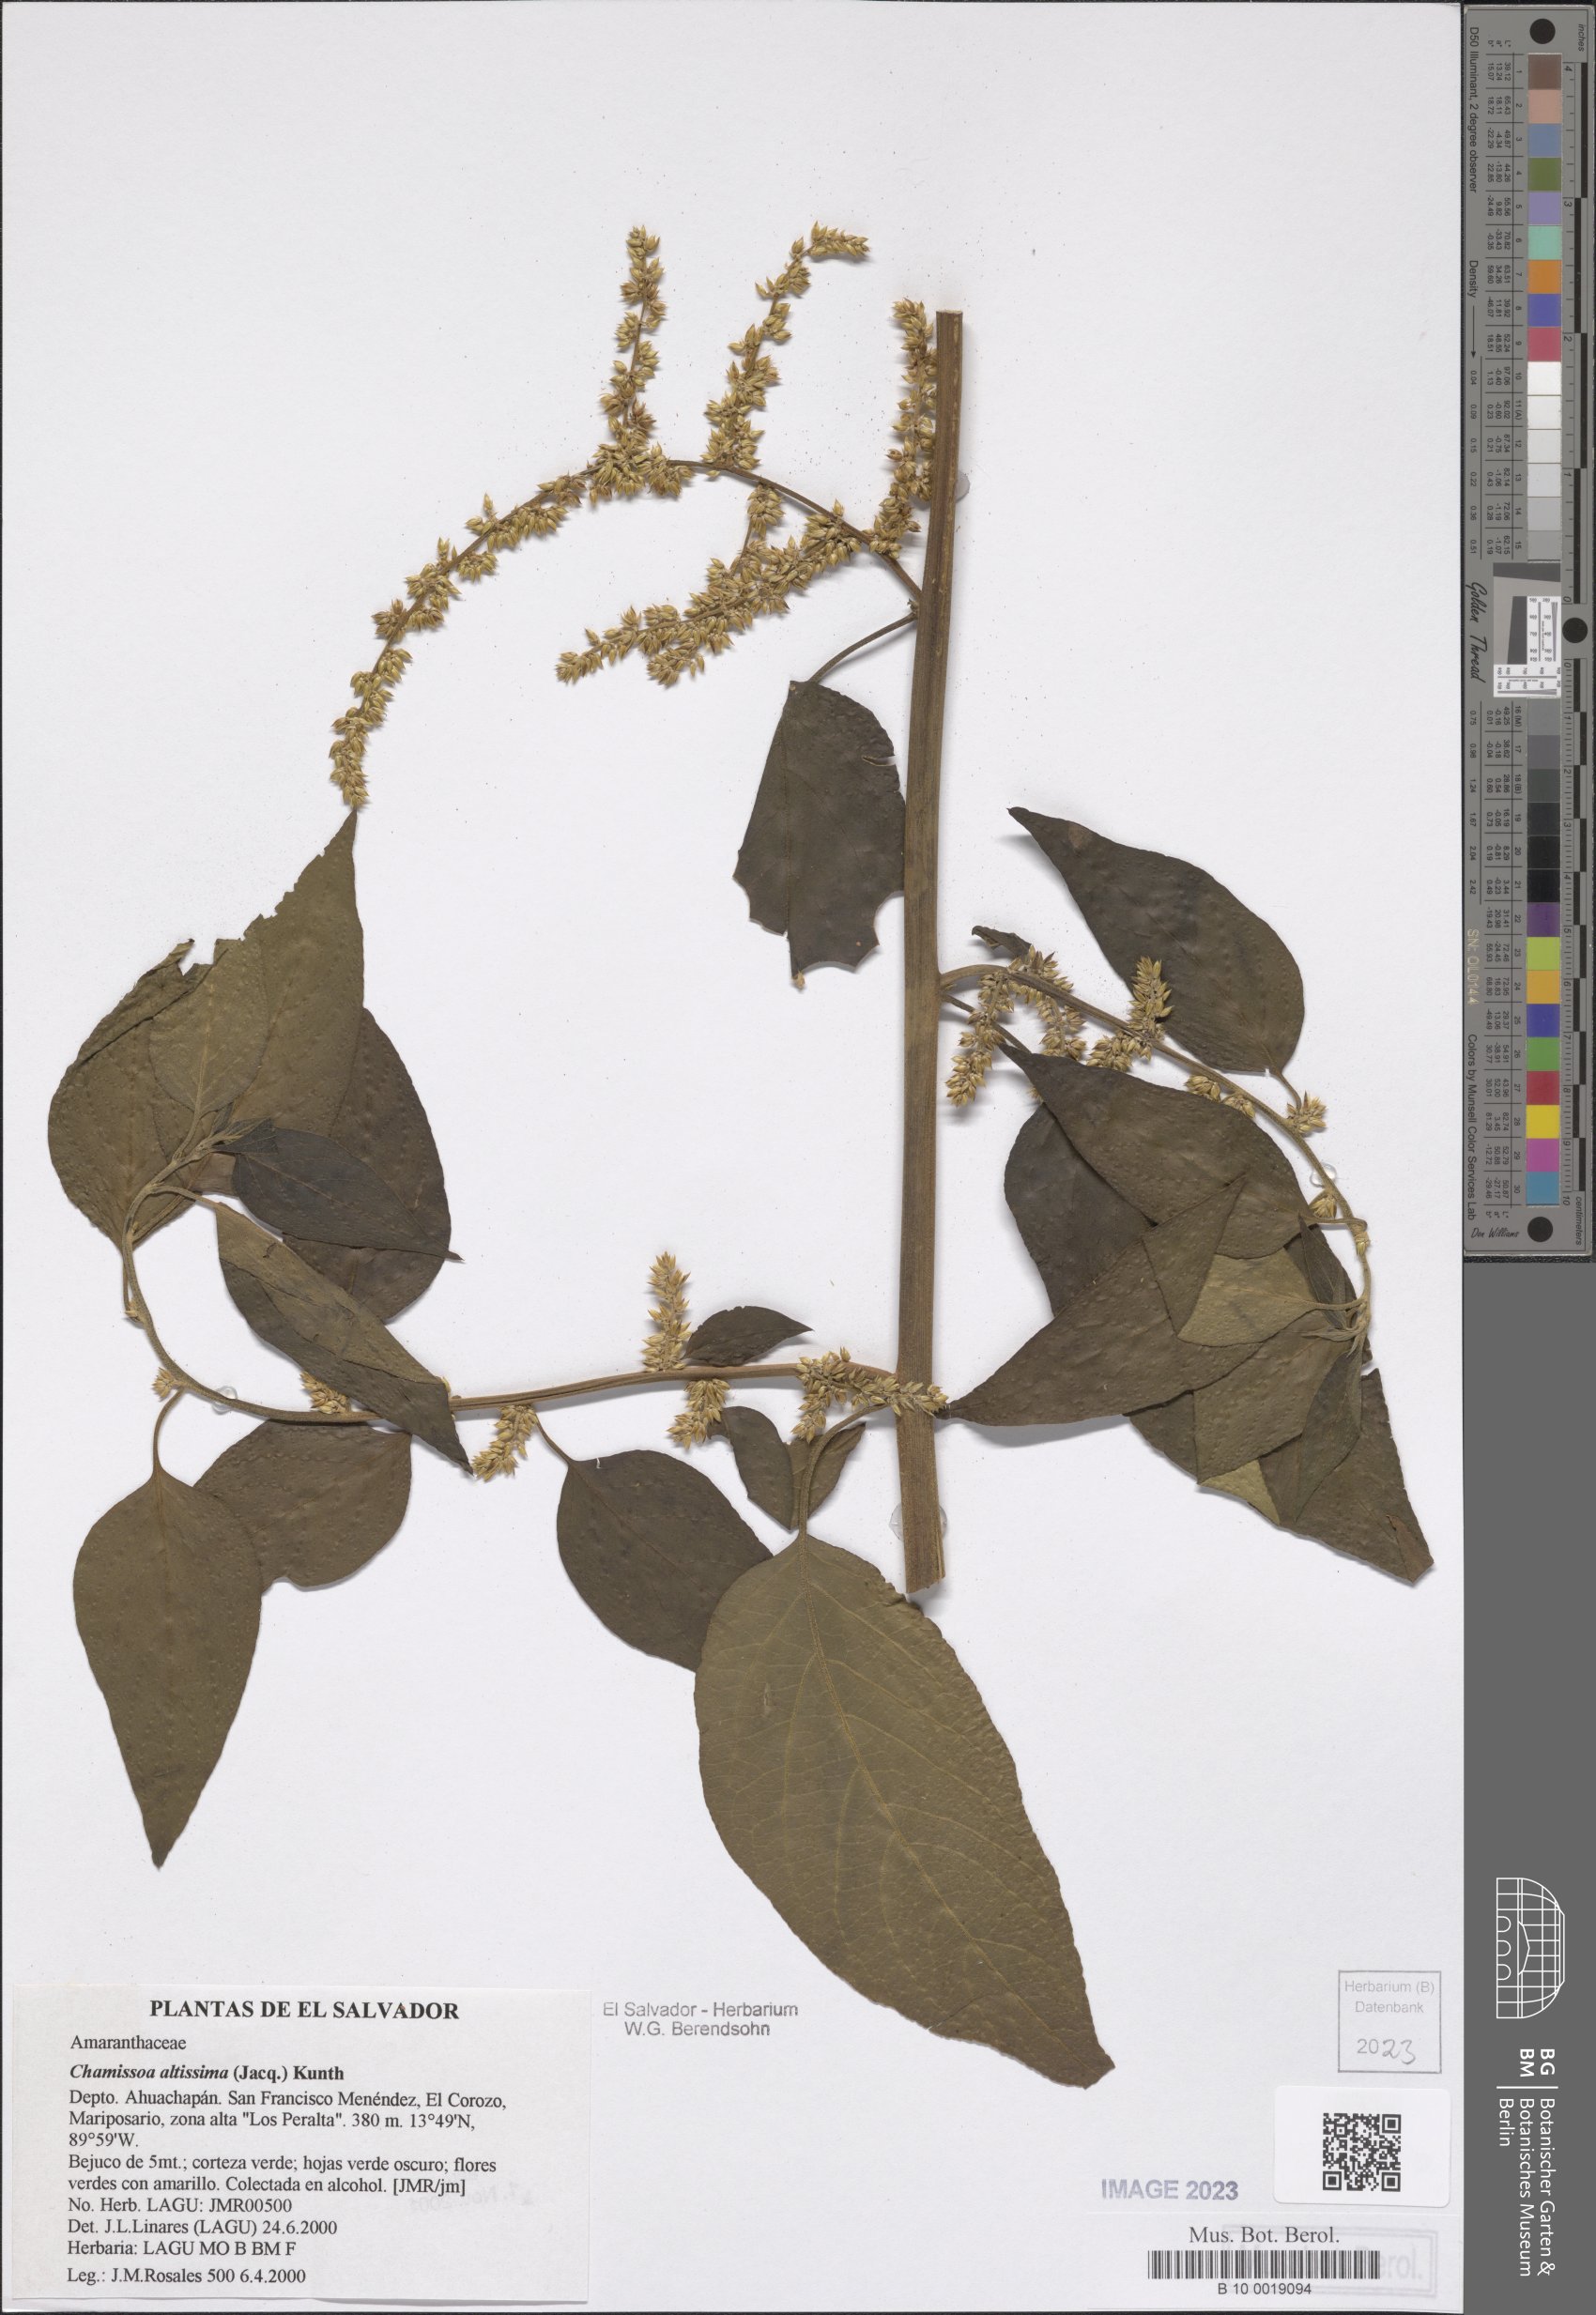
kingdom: Plantae
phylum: Tracheophyta
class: Magnoliopsida
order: Caryophyllales
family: Amaranthaceae
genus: Chamissoa
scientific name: Chamissoa altissima
